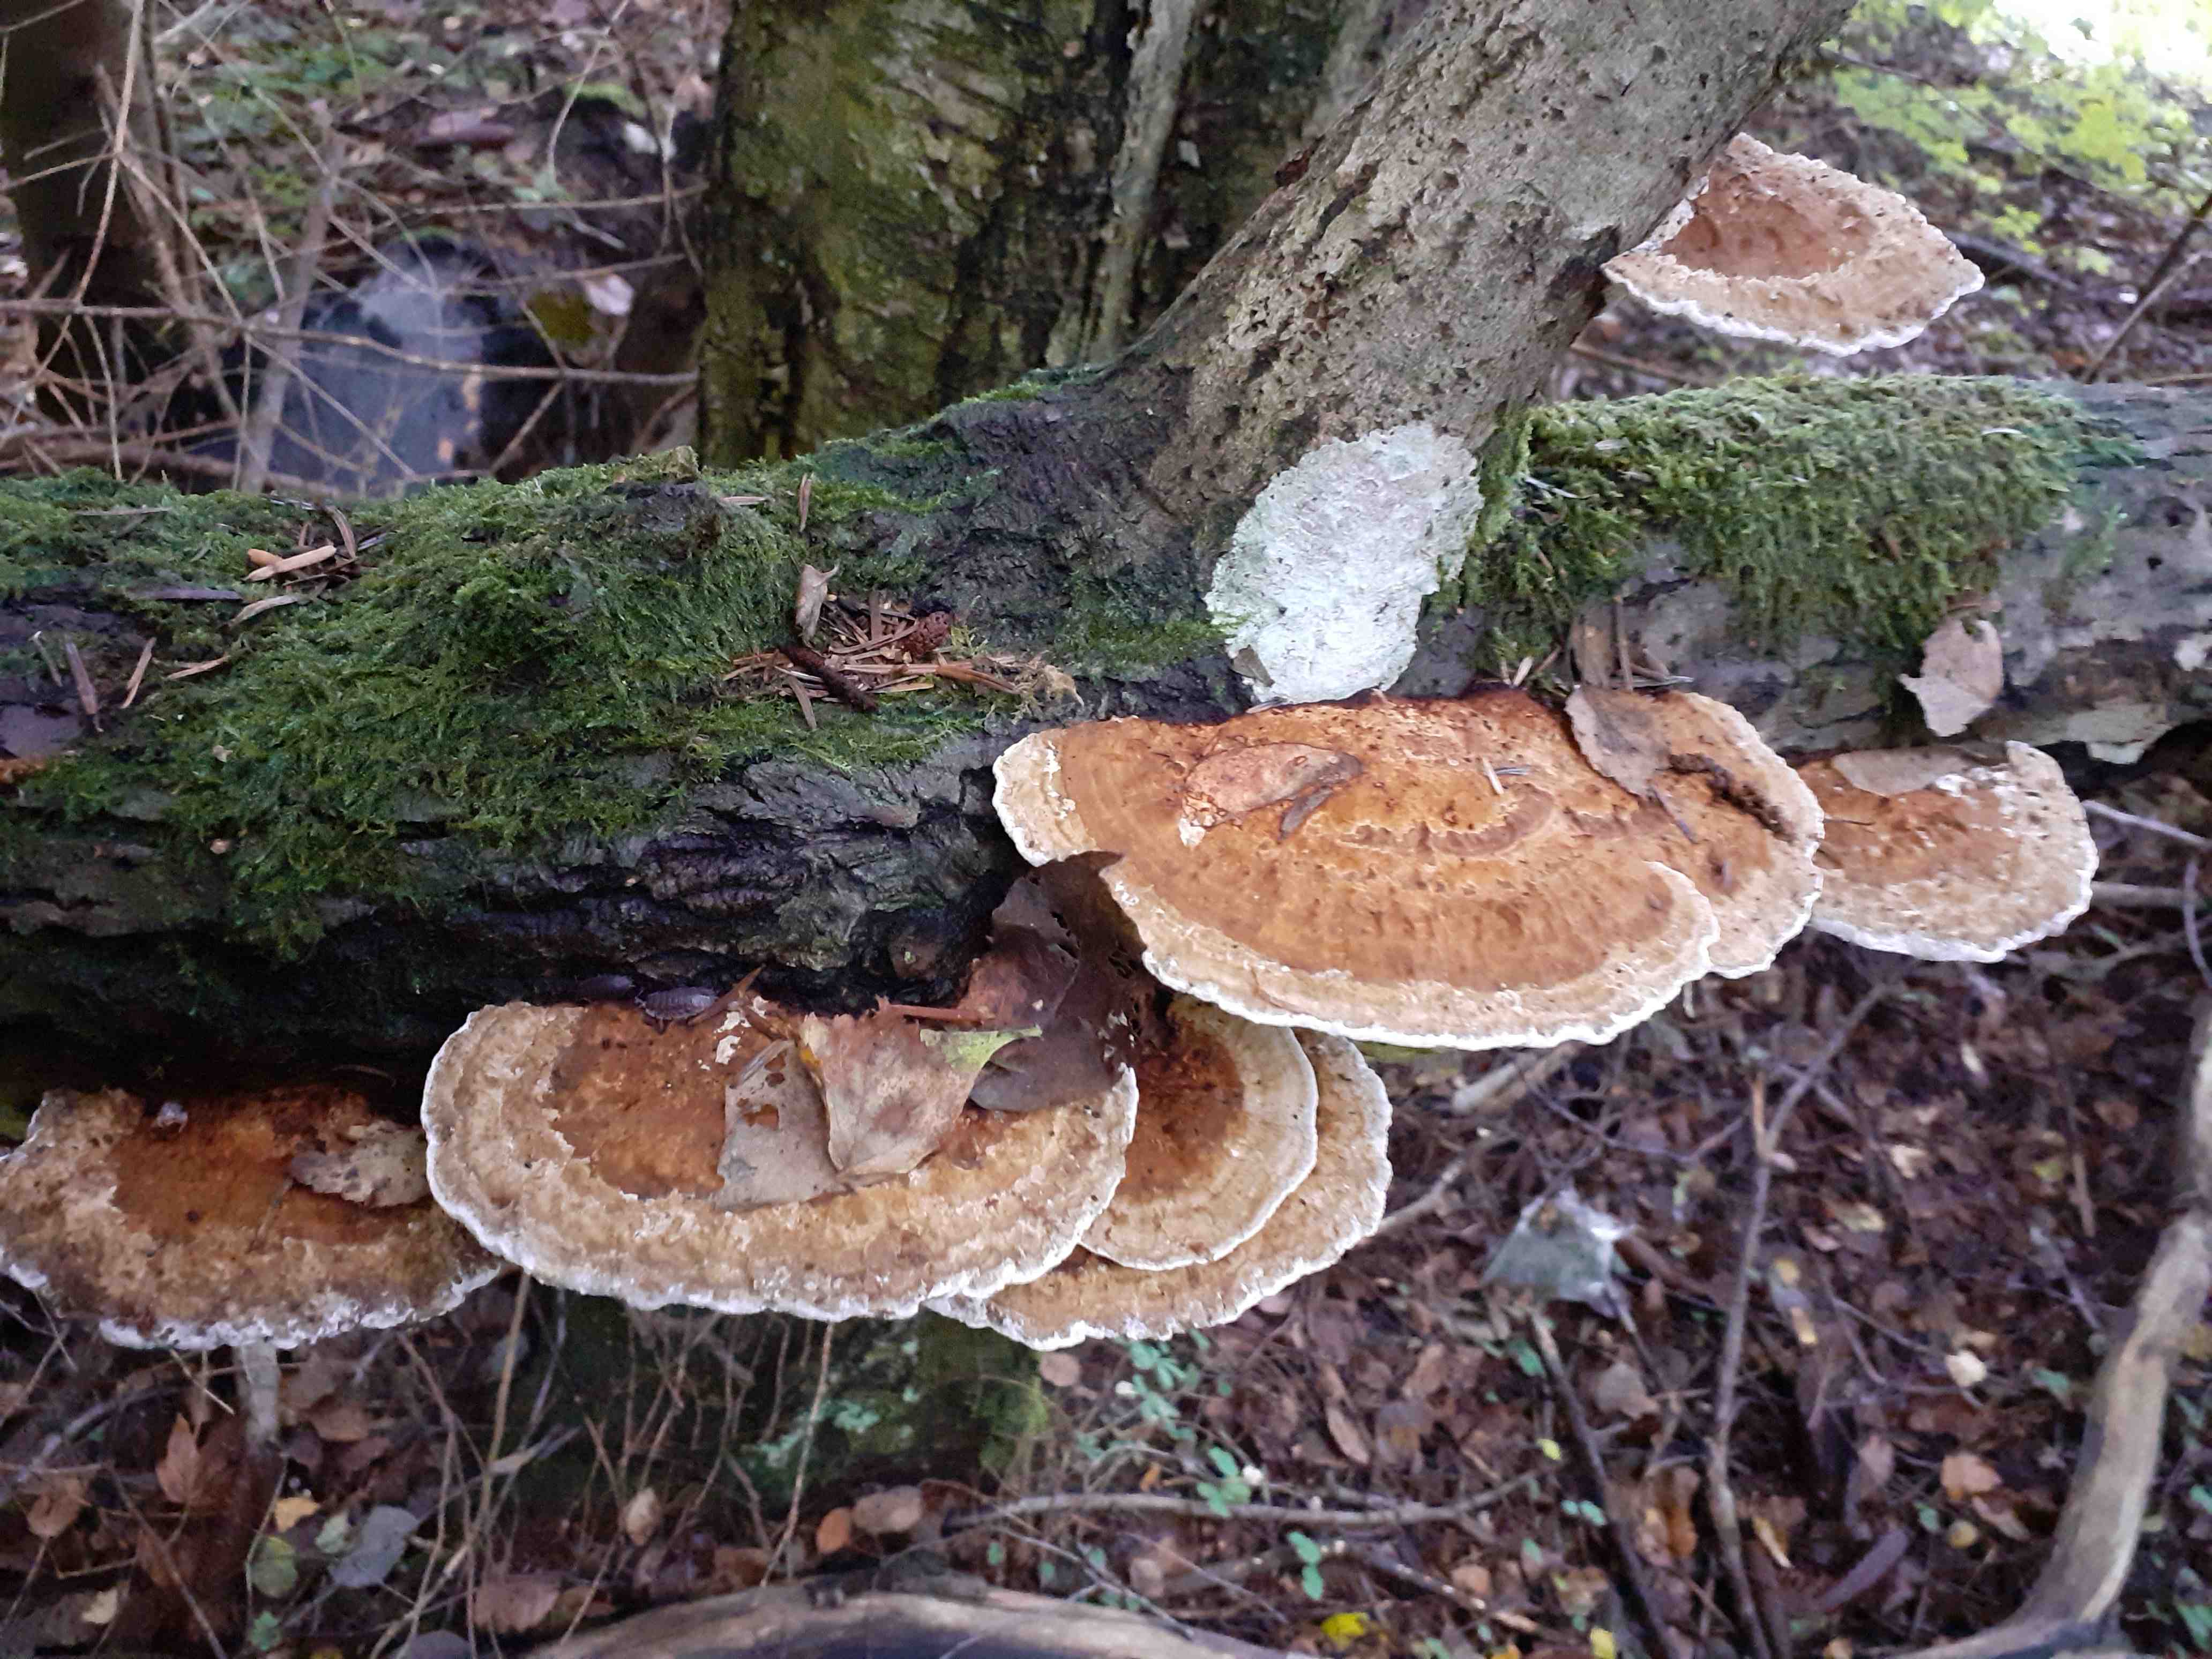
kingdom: Fungi
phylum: Basidiomycota
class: Agaricomycetes
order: Polyporales
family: Polyporaceae
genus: Daedaleopsis
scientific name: Daedaleopsis confragosa
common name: rødmende læderporesvamp
